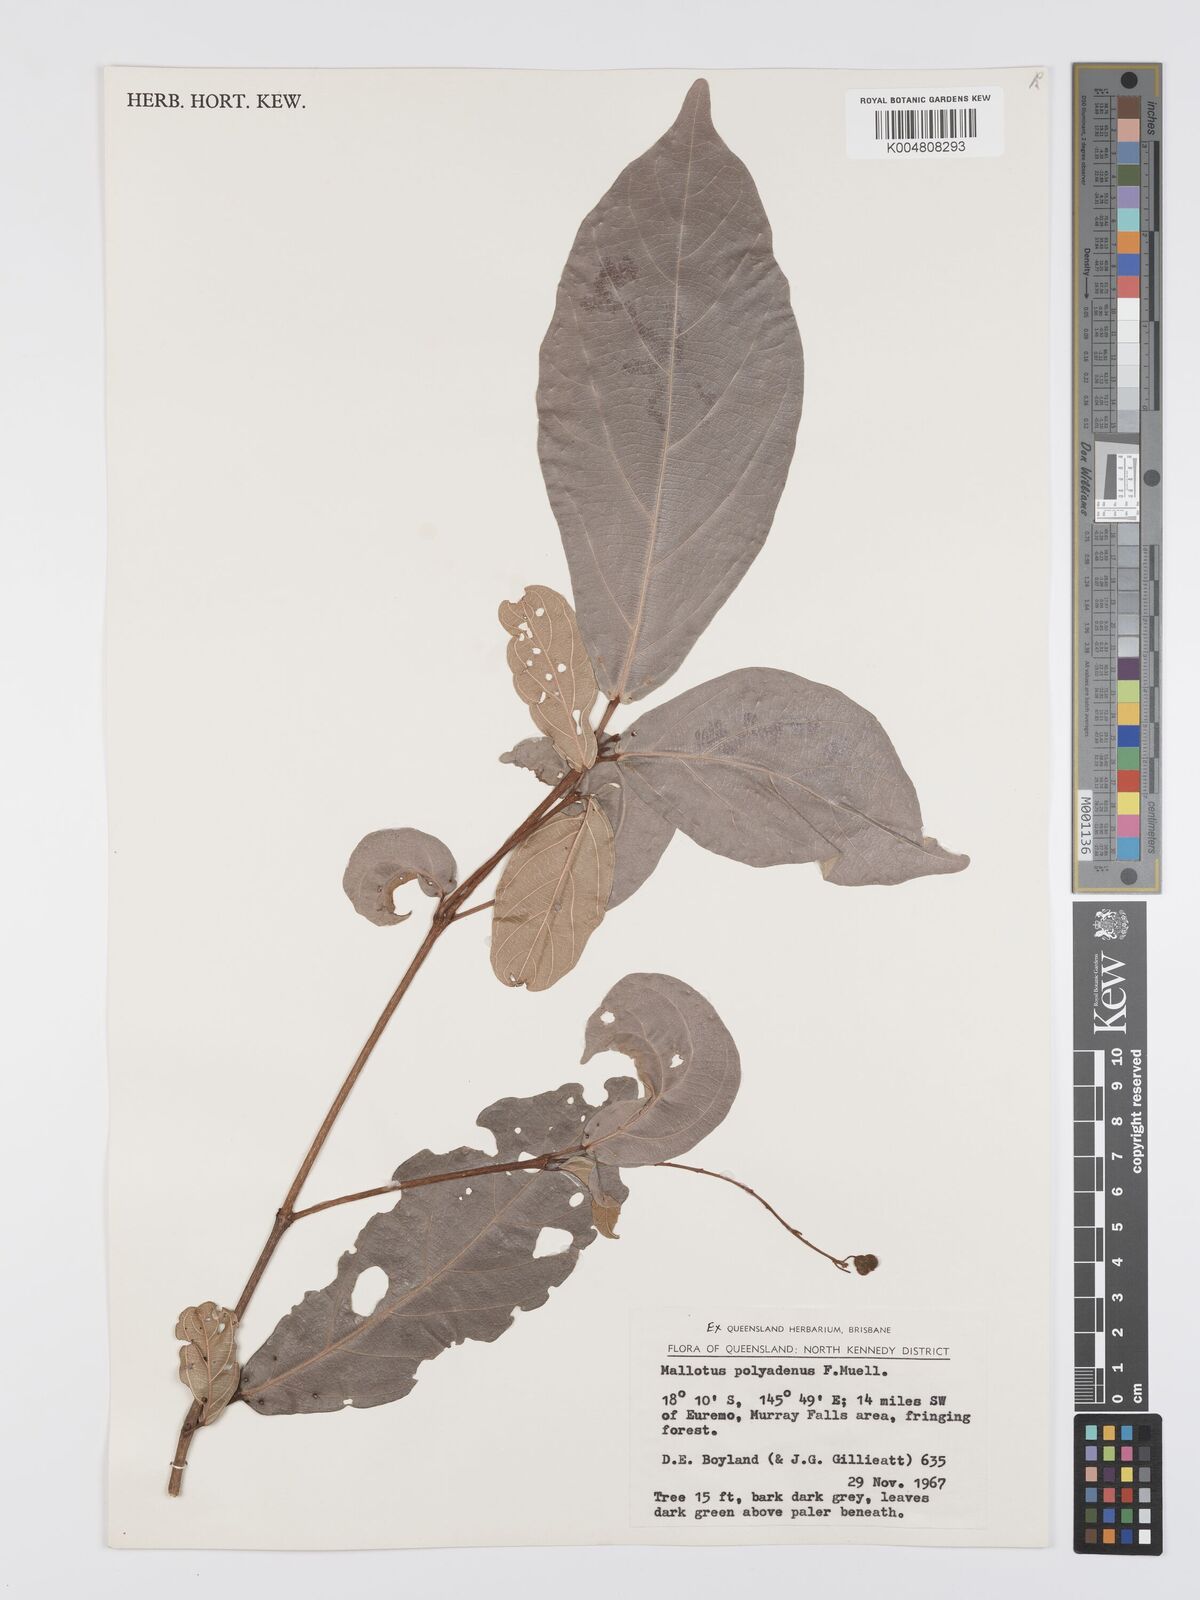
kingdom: Plantae
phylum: Tracheophyta
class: Magnoliopsida
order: Malpighiales
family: Euphorbiaceae
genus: Mallotus
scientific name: Mallotus polyadenos
